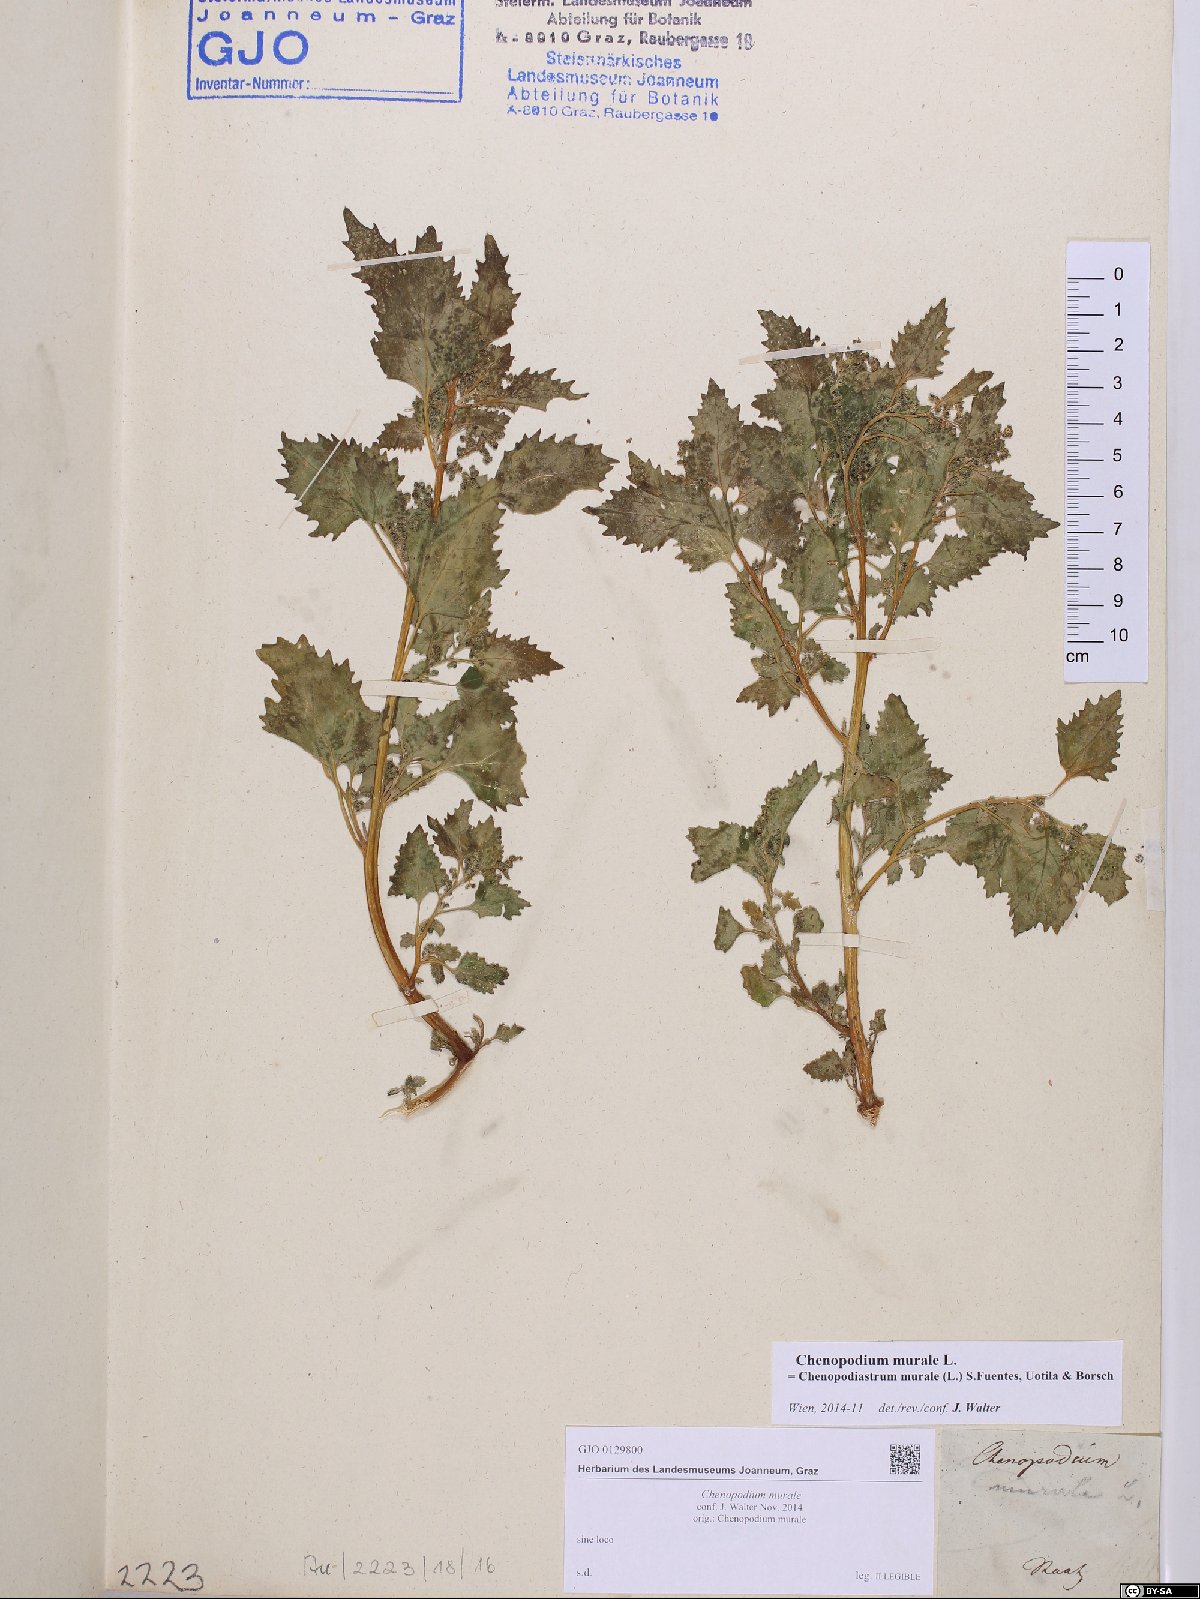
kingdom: Plantae
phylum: Tracheophyta
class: Magnoliopsida
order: Caryophyllales
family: Amaranthaceae
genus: Chenopodiastrum
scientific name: Chenopodiastrum murale
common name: Sowbane
